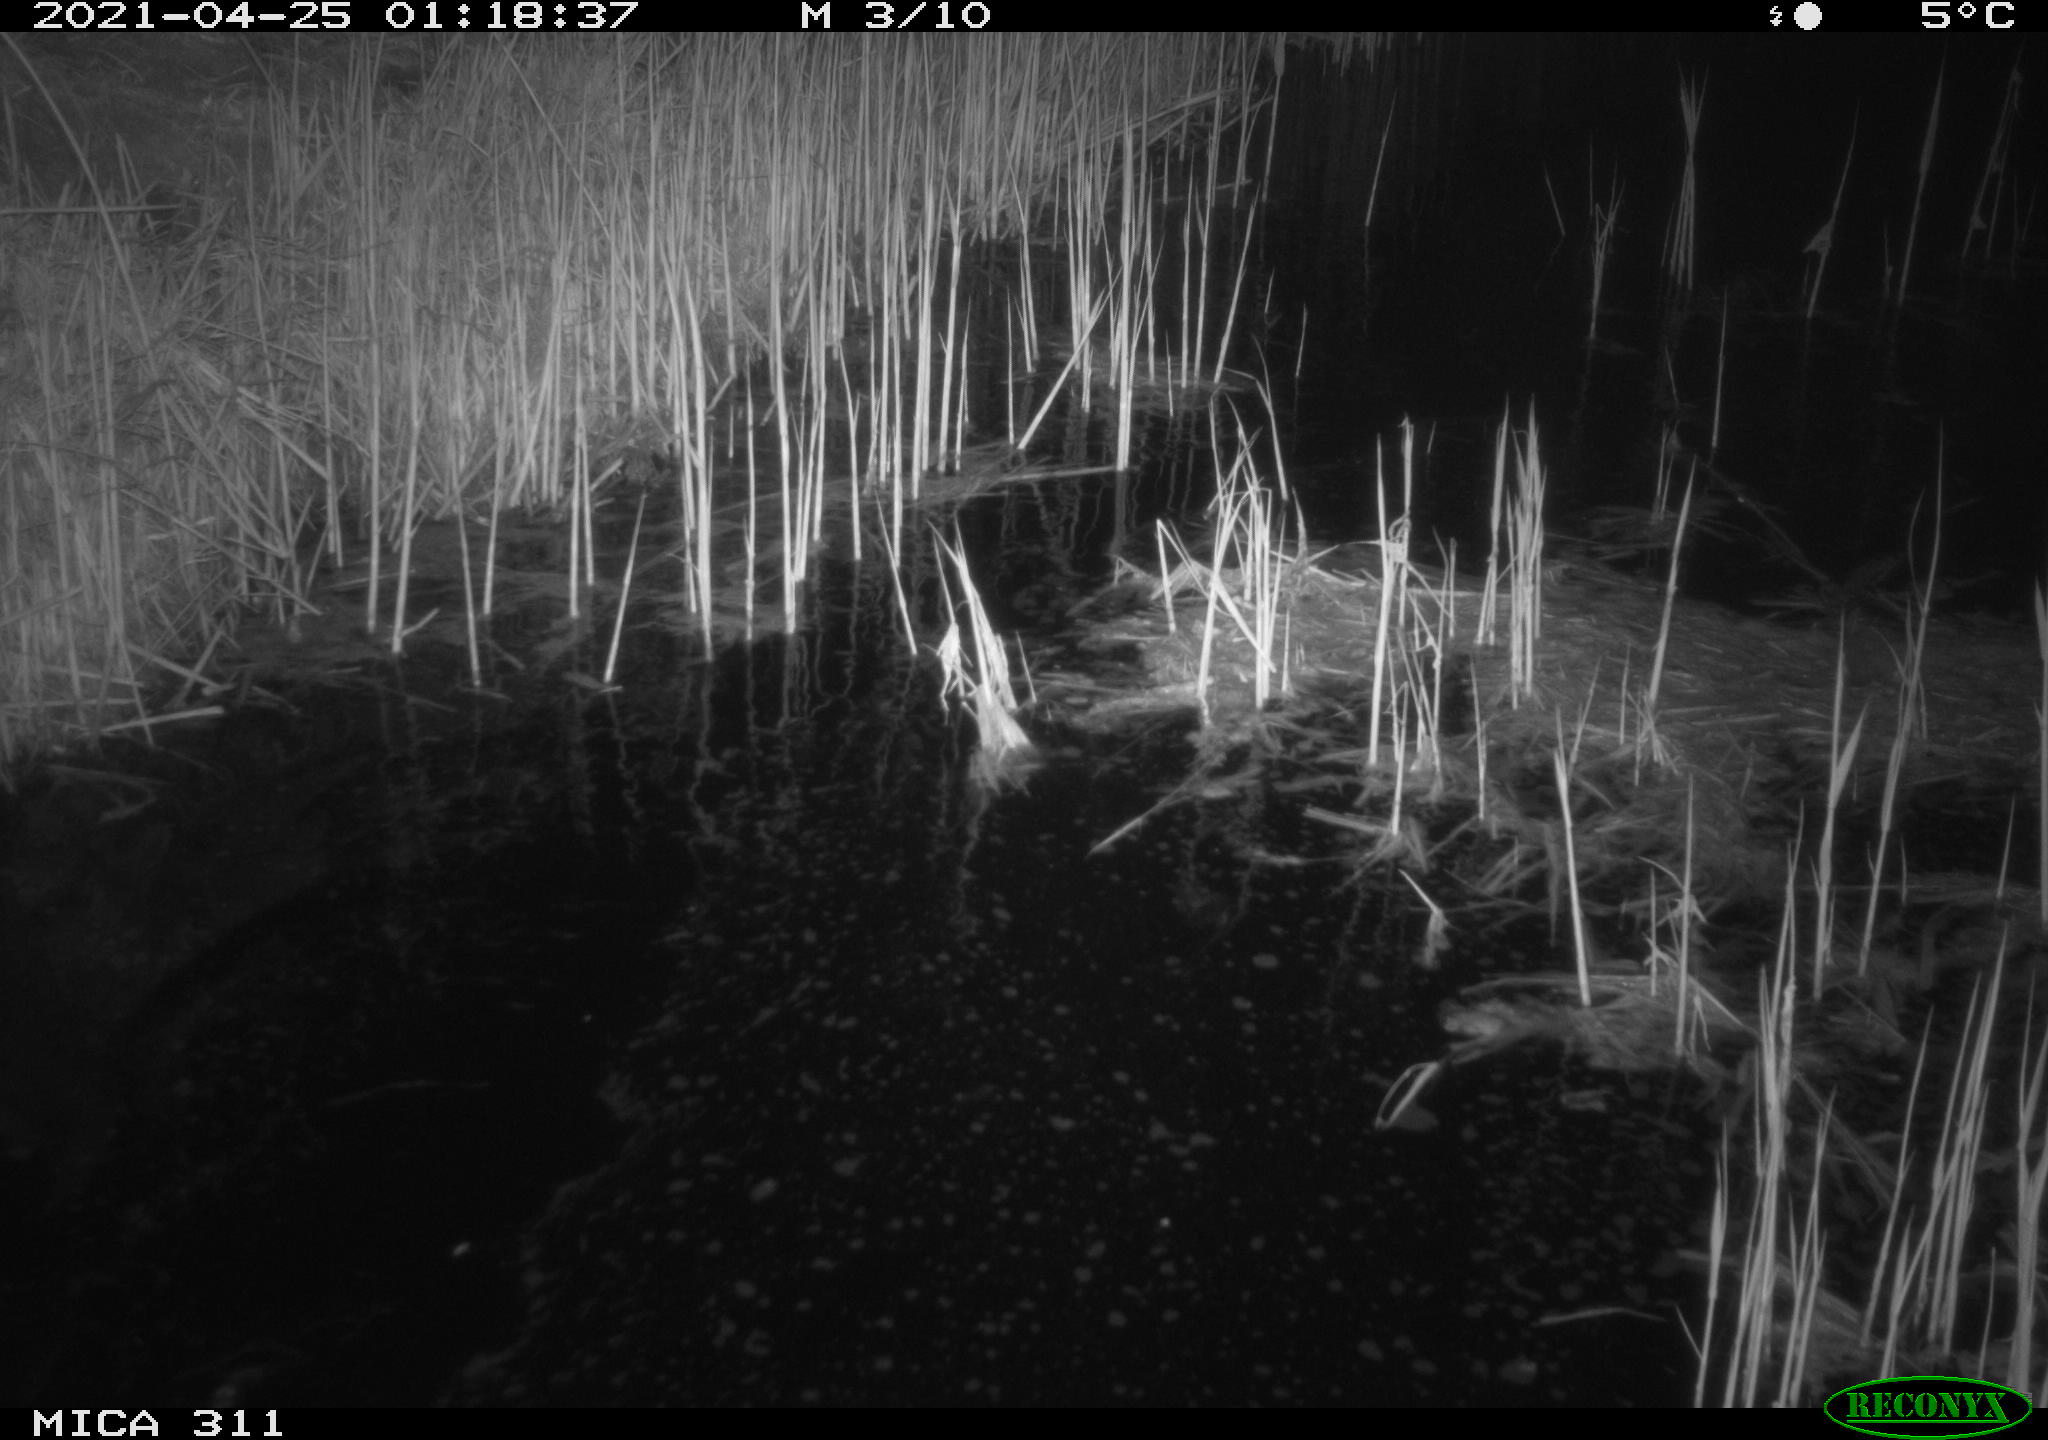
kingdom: Animalia
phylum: Chordata
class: Mammalia
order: Rodentia
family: Cricetidae
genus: Ondatra
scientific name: Ondatra zibethicus
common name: Muskrat
